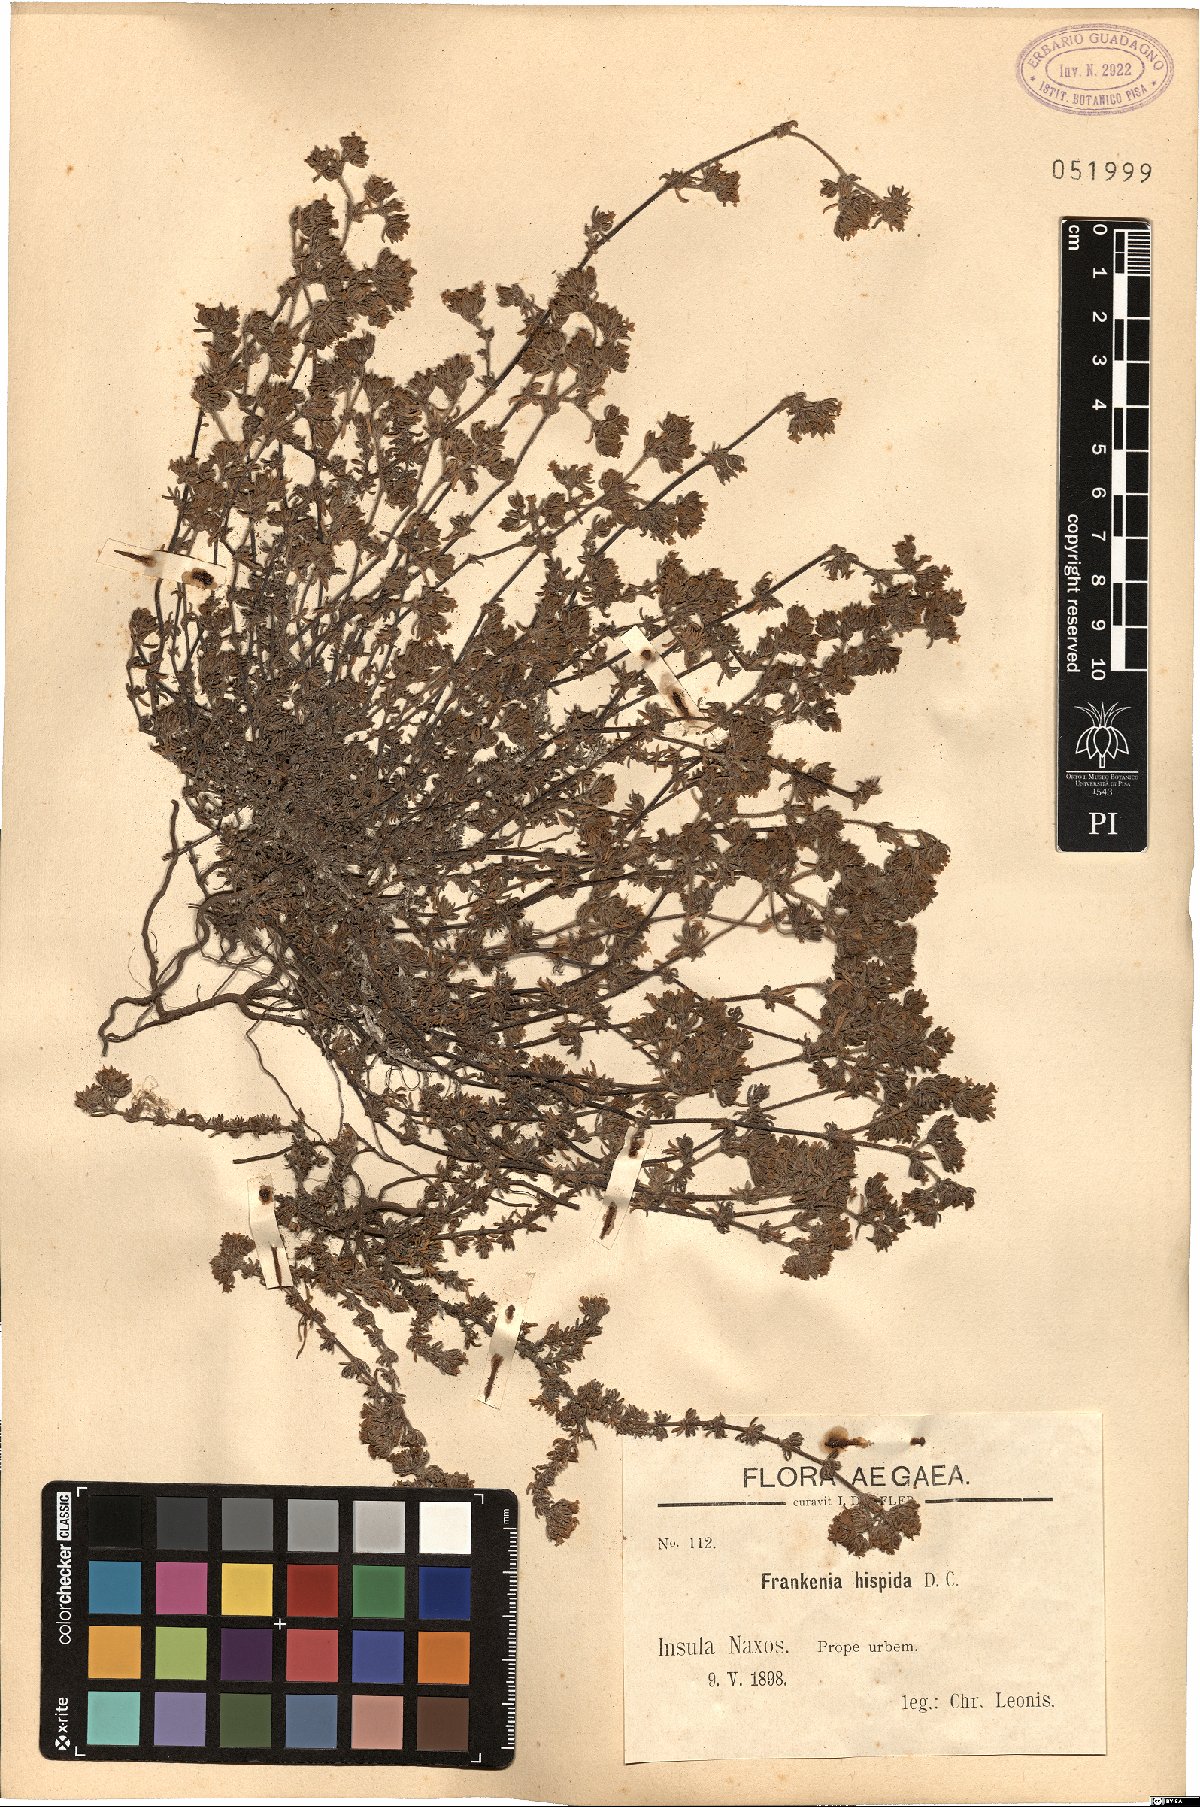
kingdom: Plantae
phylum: Tracheophyta
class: Magnoliopsida
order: Caryophyllales
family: Frankeniaceae
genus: Frankenia
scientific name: Frankenia hirsuta
